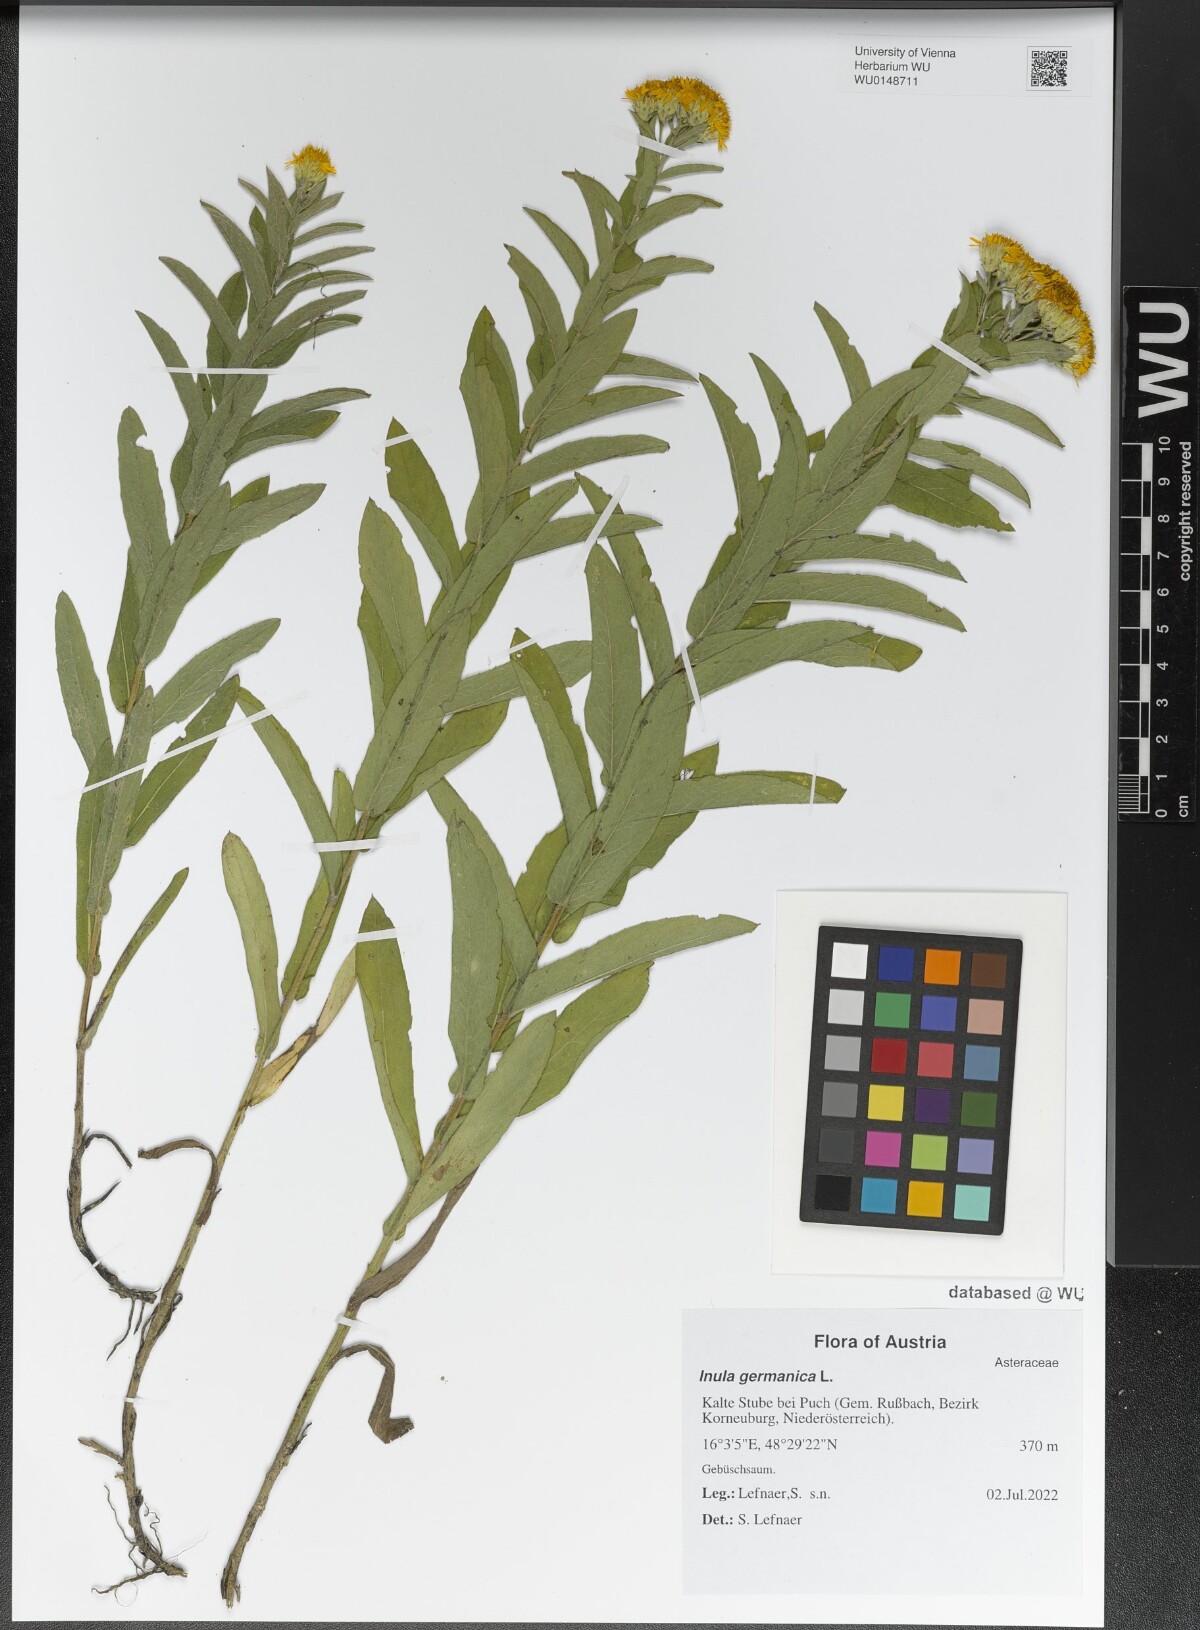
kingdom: Plantae
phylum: Tracheophyta
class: Magnoliopsida
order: Asterales
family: Asteraceae
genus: Pentanema
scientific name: Pentanema germanicum
